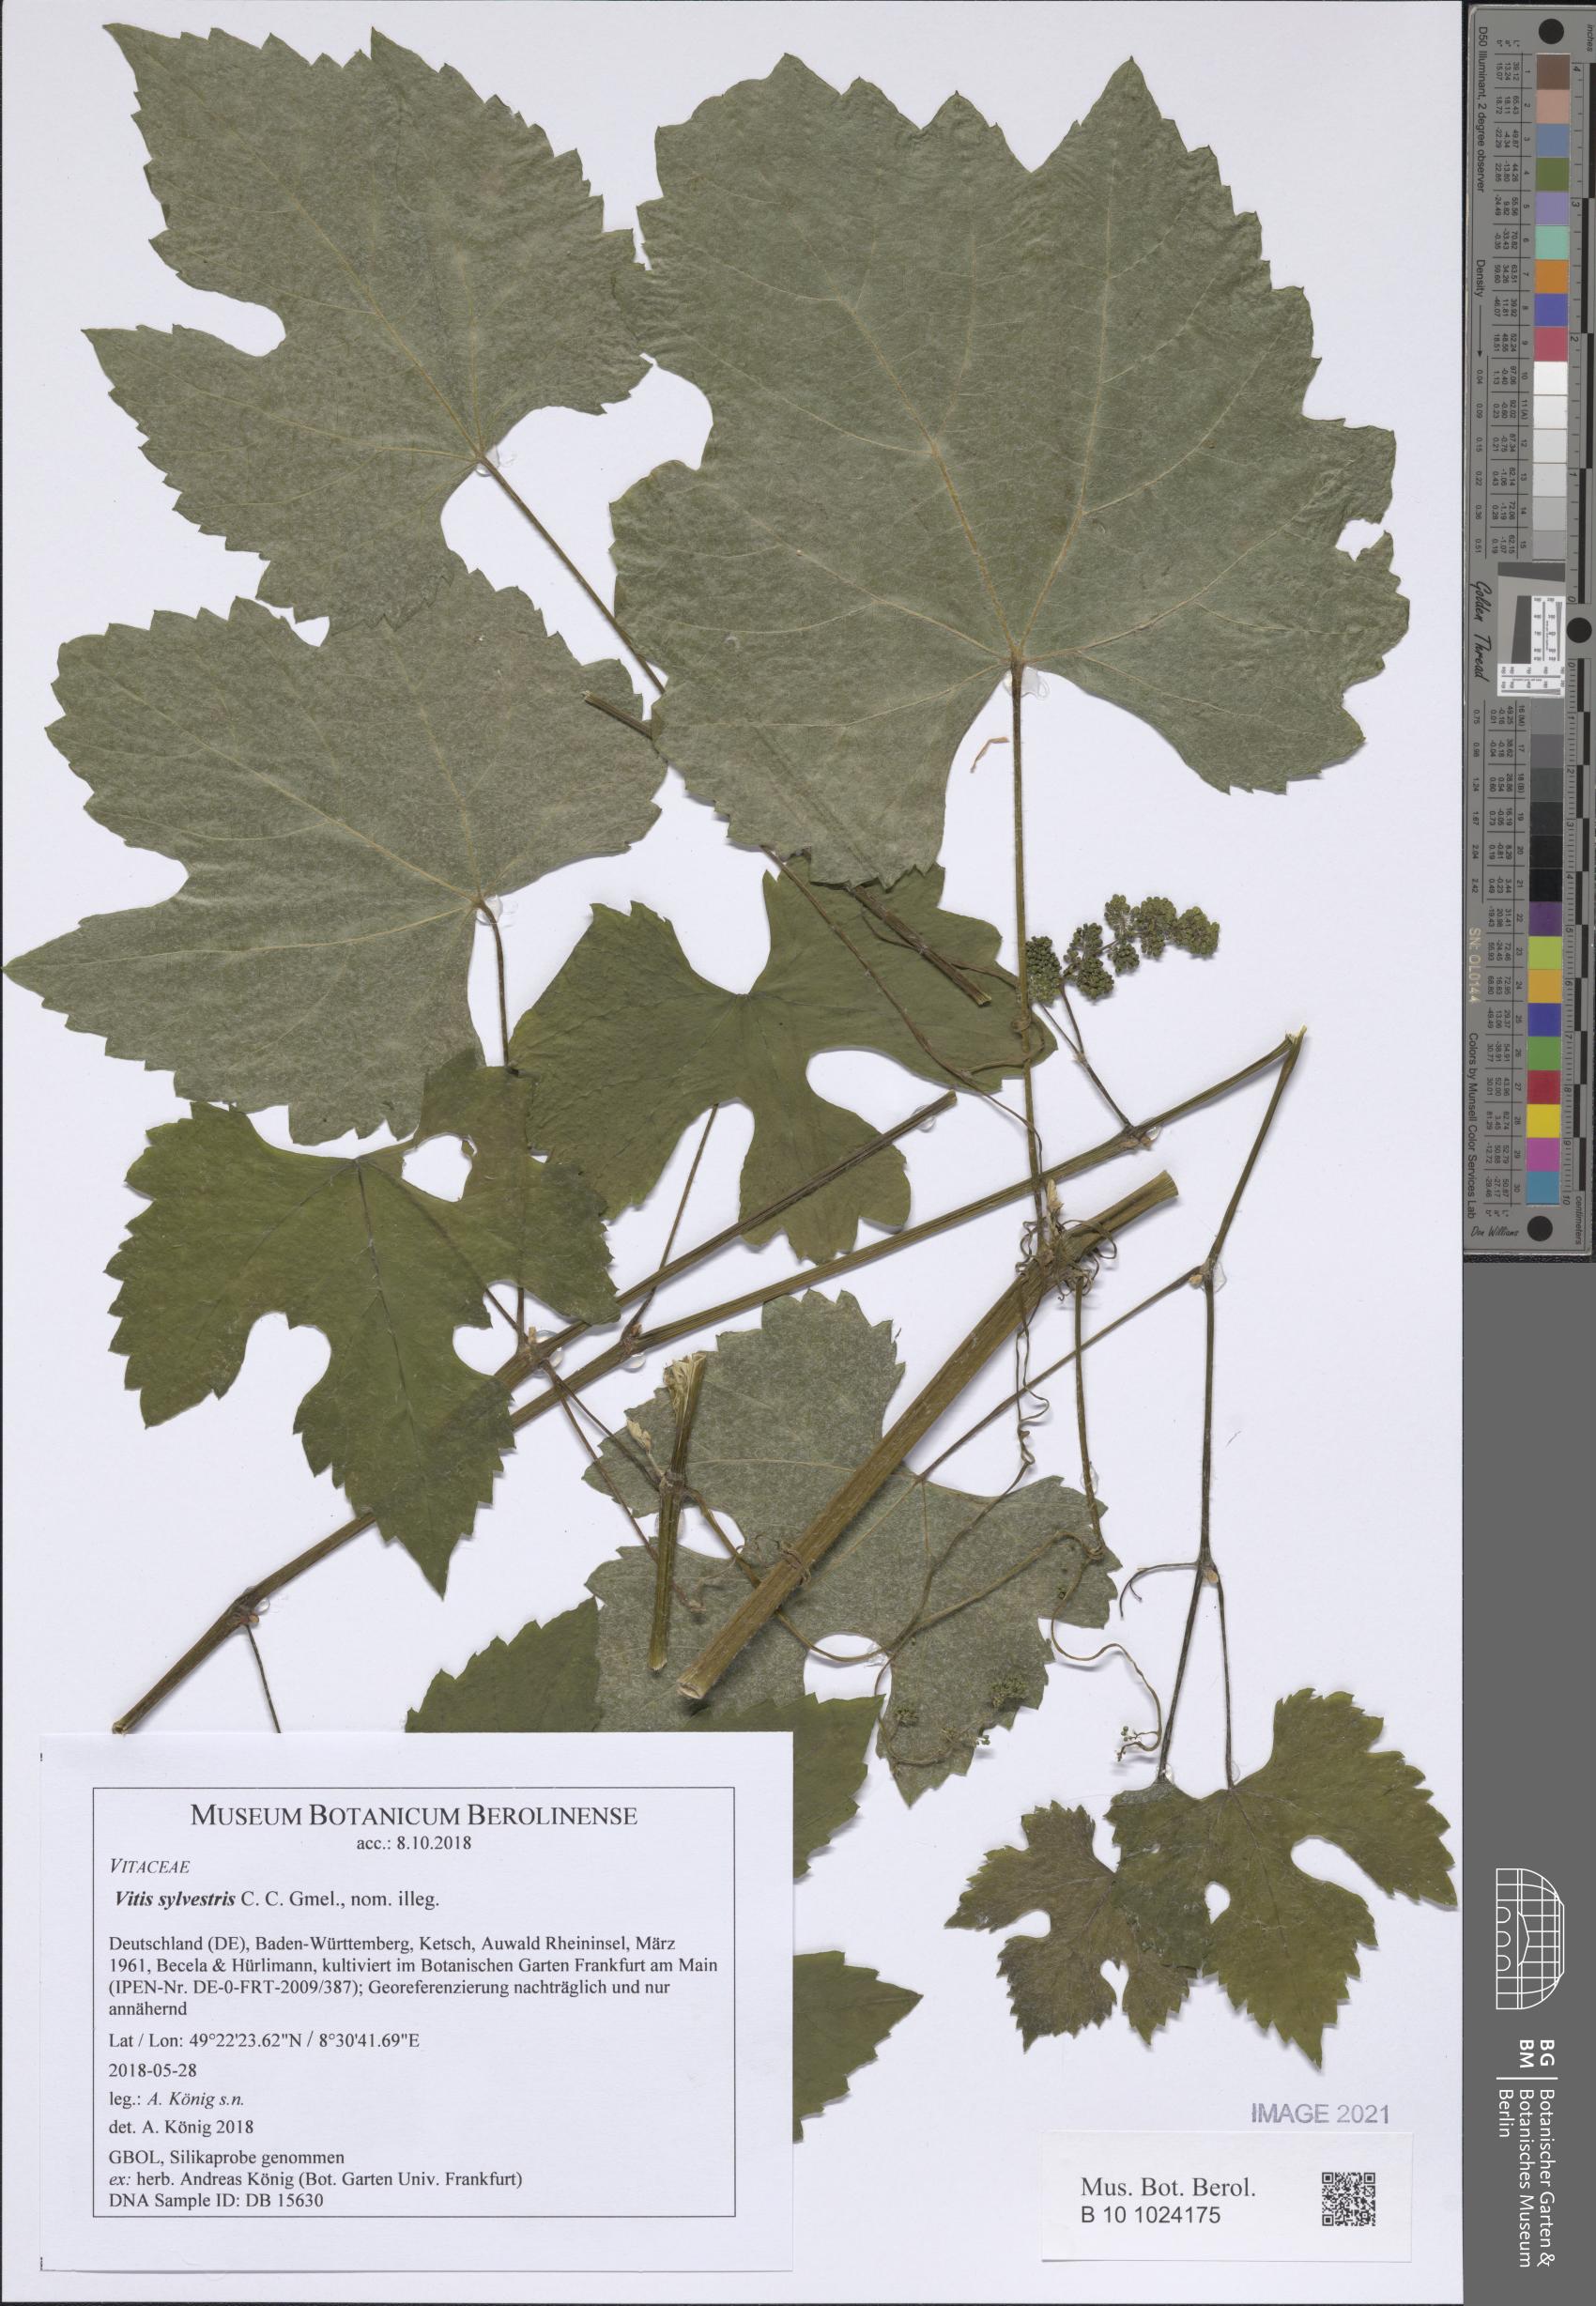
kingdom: Plantae
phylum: Tracheophyta
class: Magnoliopsida
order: Vitales
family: Vitaceae
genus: Vitis
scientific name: Vitis gmelinii
